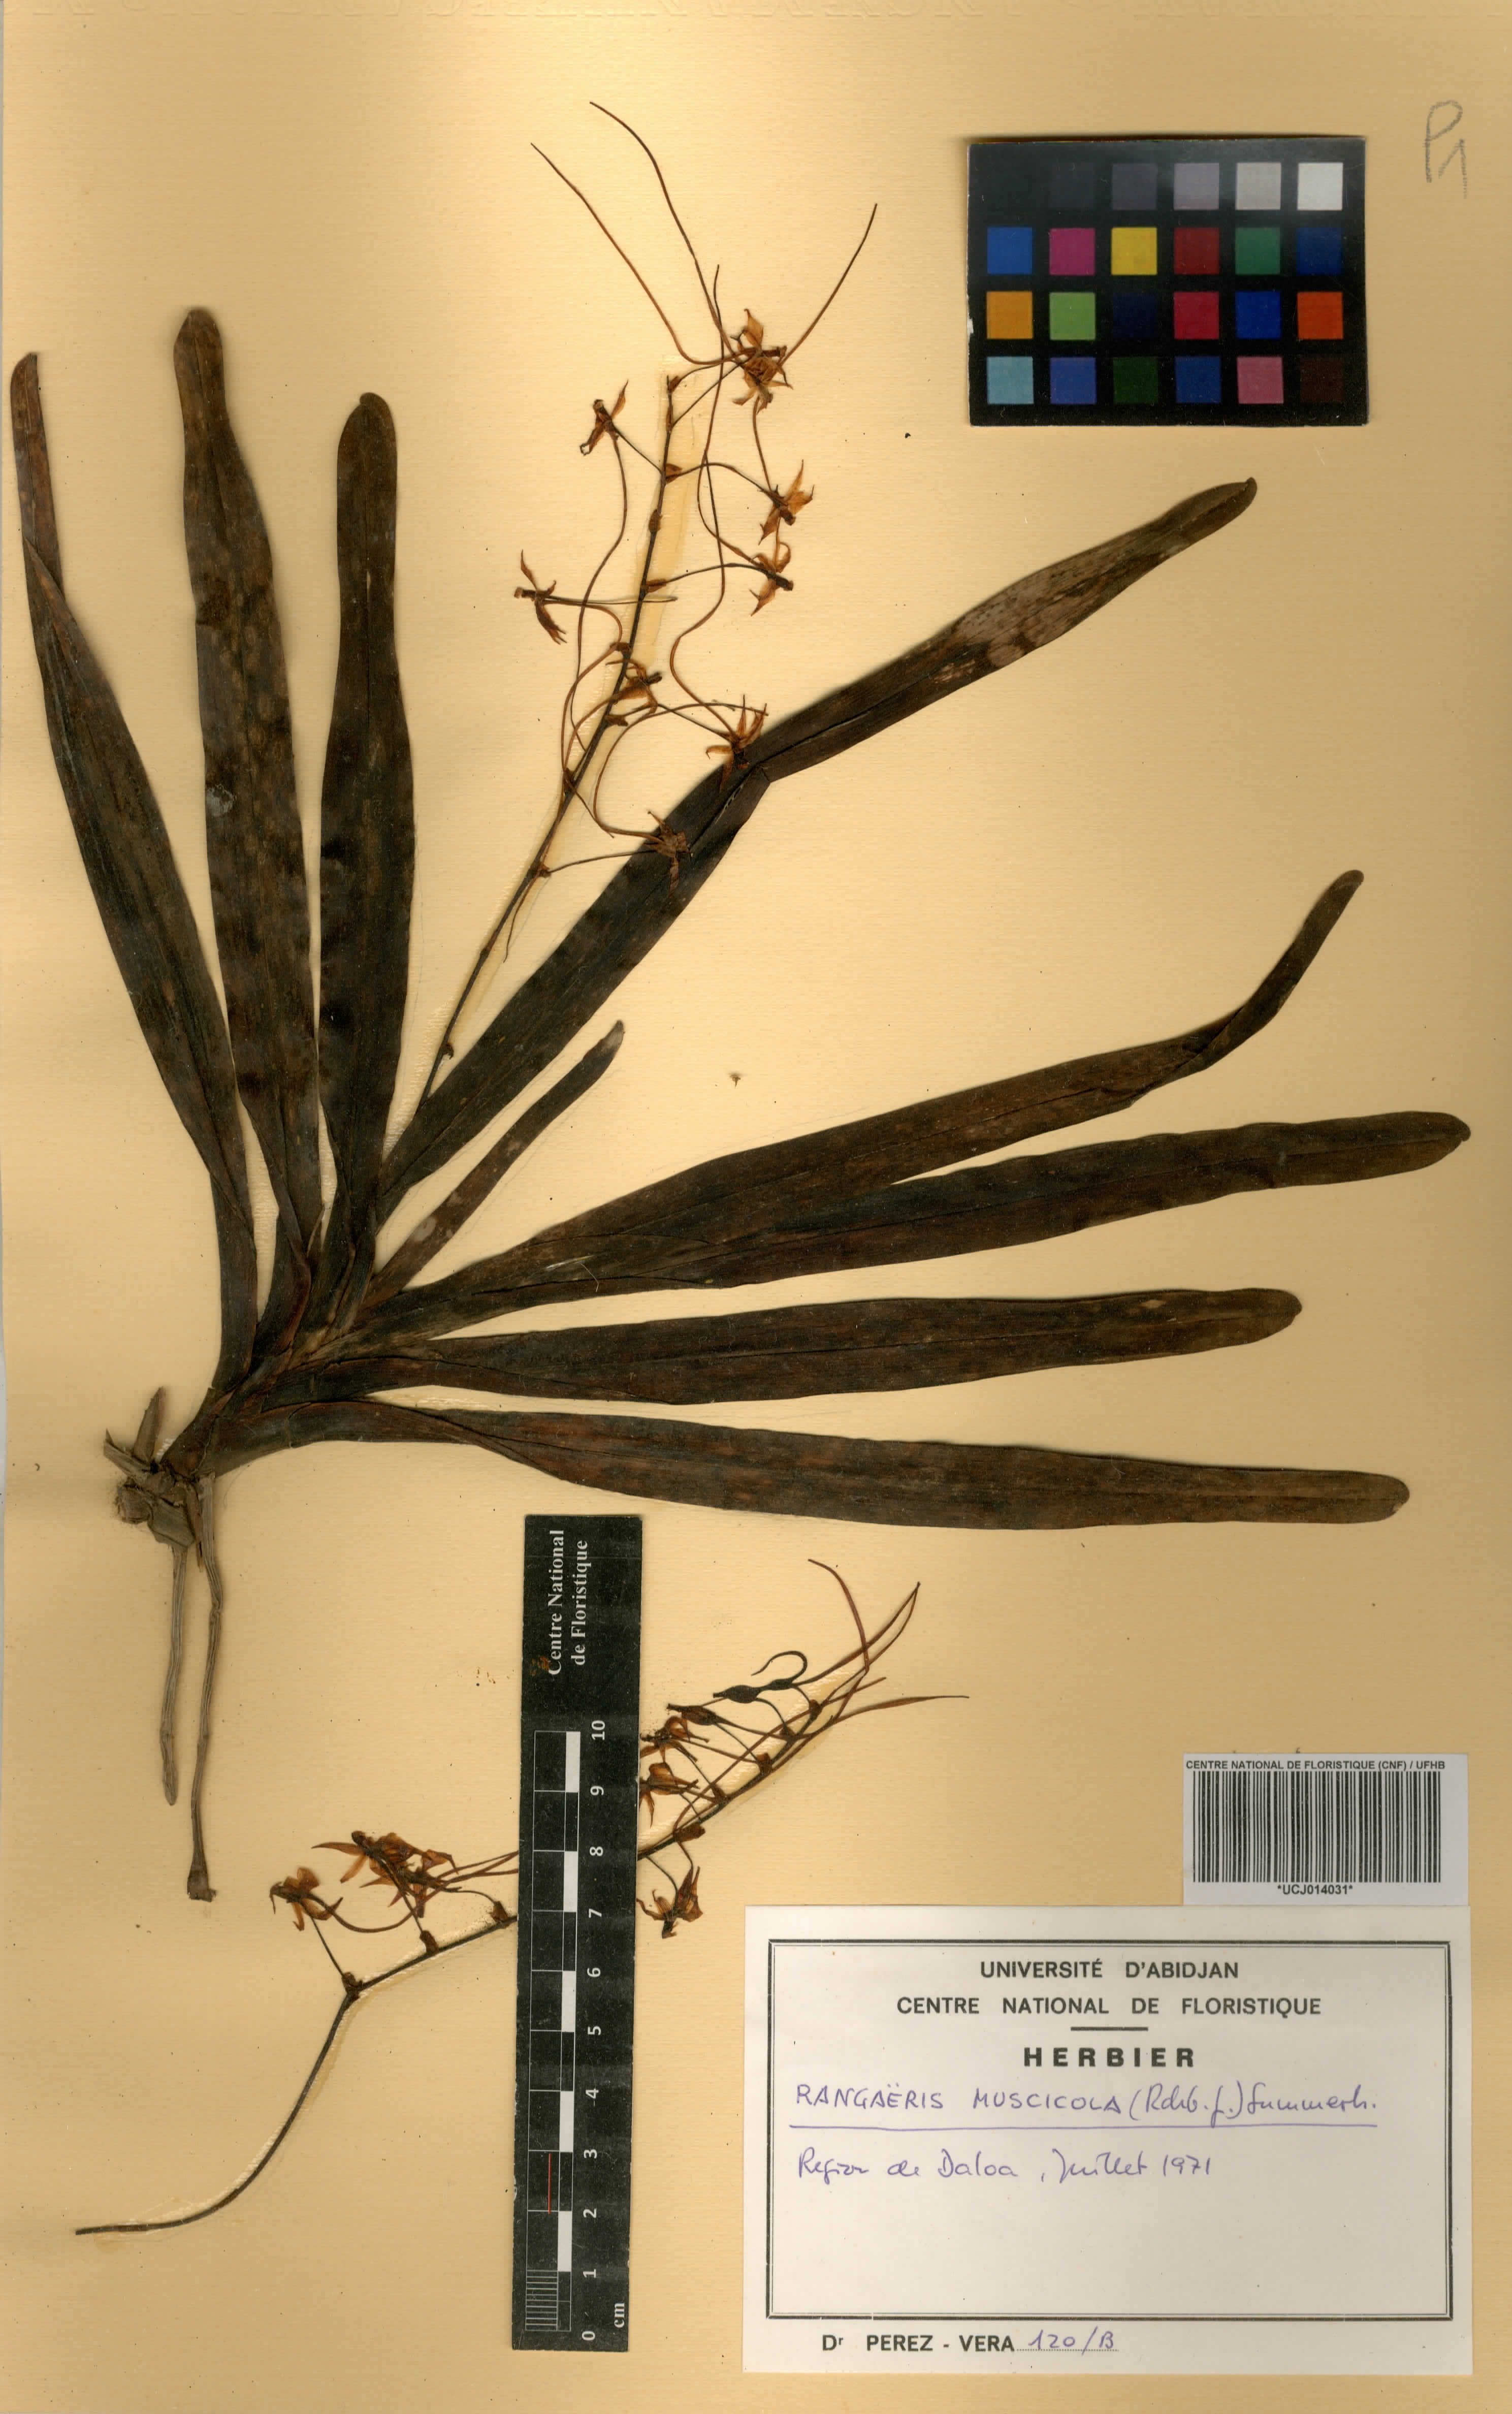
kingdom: Plantae
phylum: Tracheophyta
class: Liliopsida
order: Asparagales
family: Orchidaceae
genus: Rangaeris
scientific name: Rangaeris muscicola
